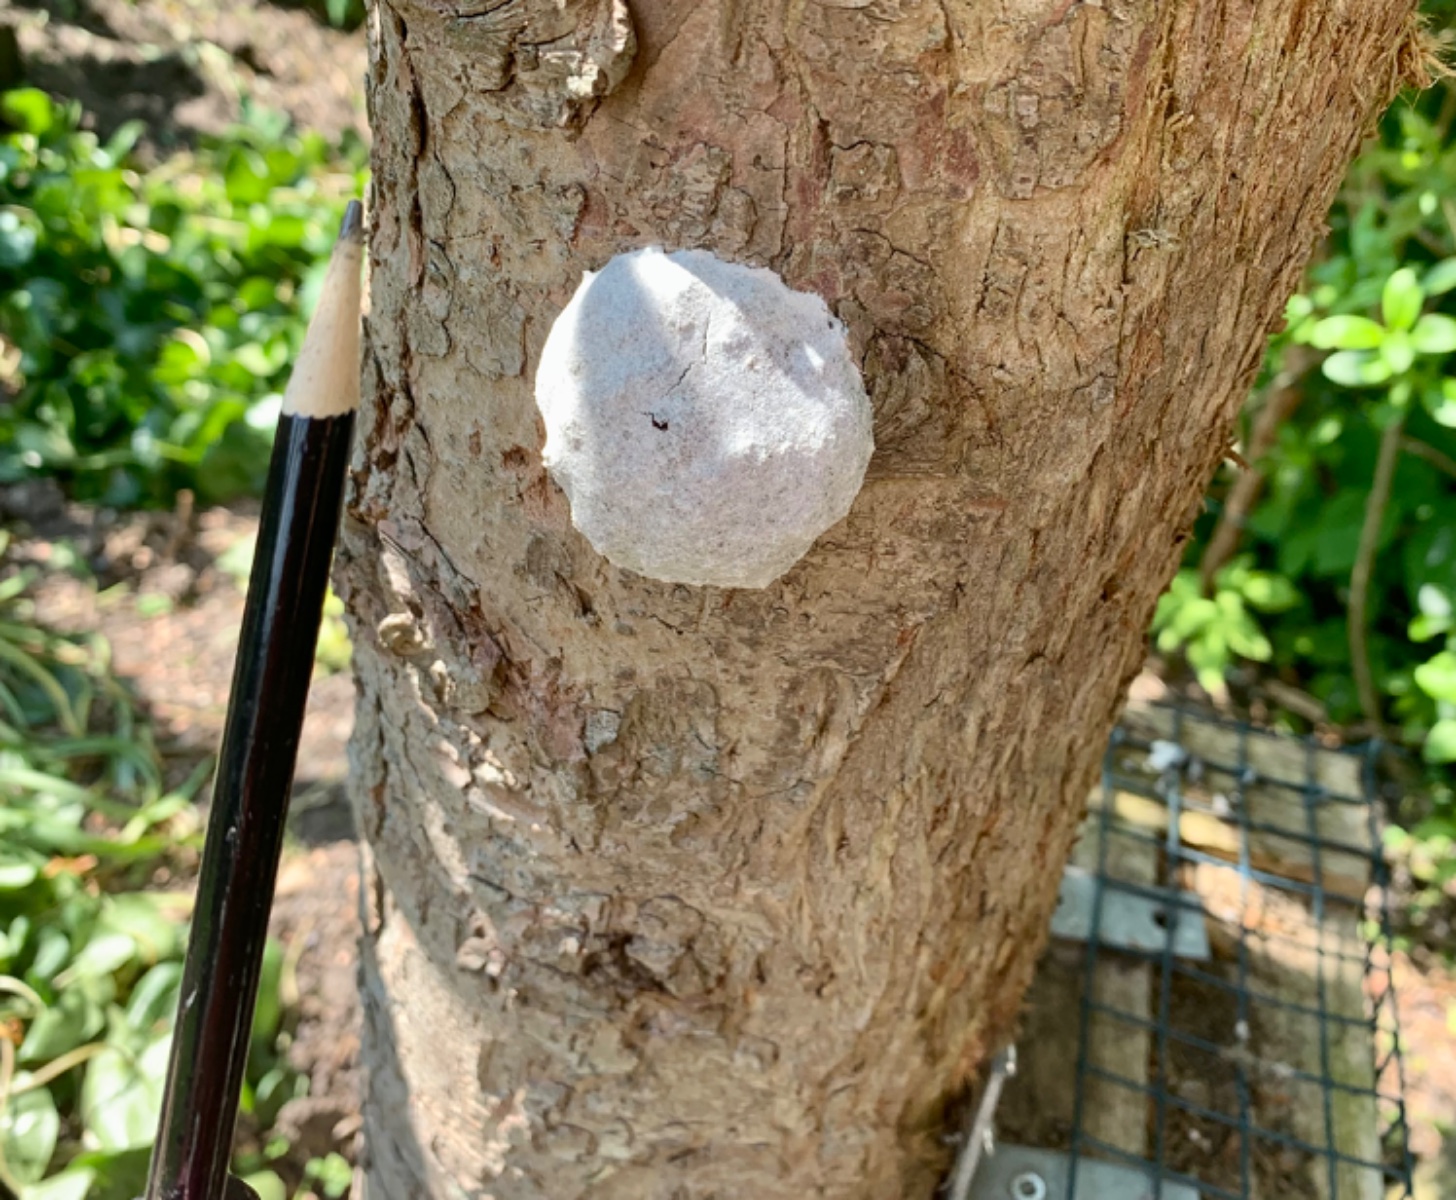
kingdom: Protozoa
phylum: Mycetozoa
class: Myxomycetes
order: Cribrariales
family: Tubiferaceae
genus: Reticularia
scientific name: Reticularia lycoperdon
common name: skinnende støvpude
